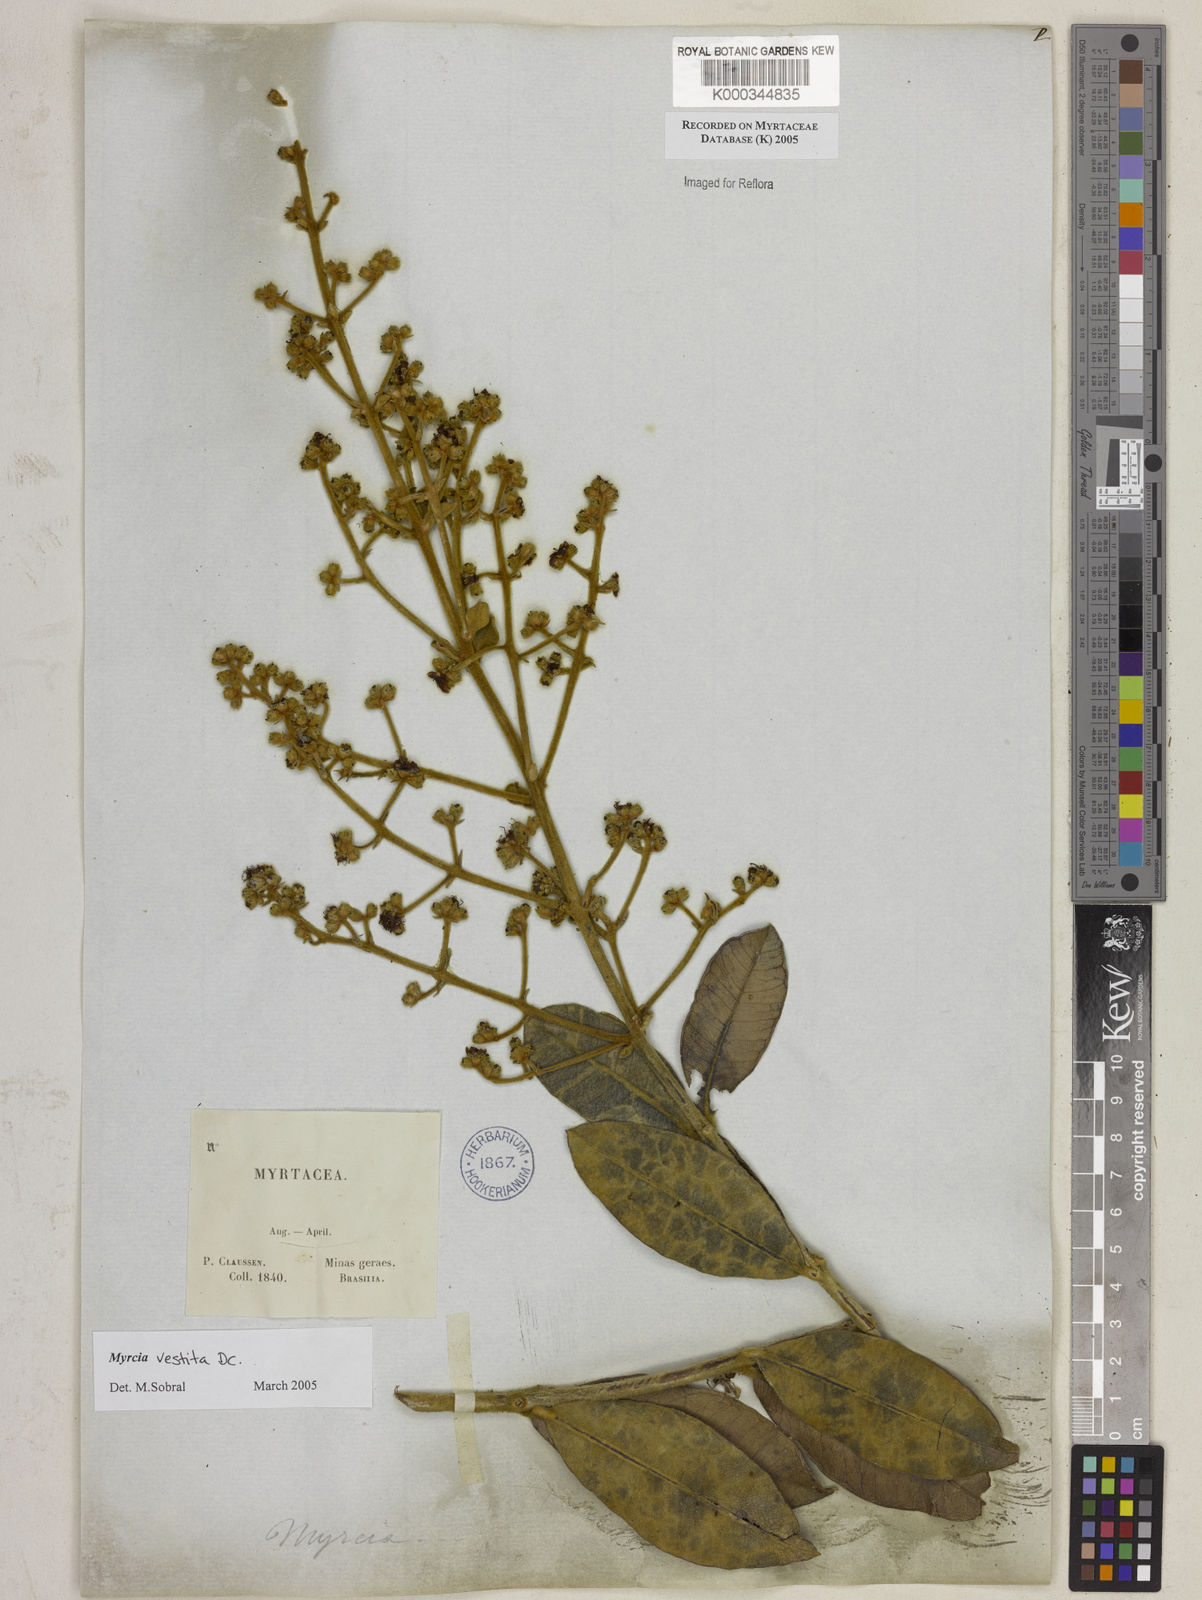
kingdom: Plantae
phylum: Tracheophyta
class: Magnoliopsida
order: Myrtales
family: Myrtaceae
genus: Myrcia
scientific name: Myrcia vestita
